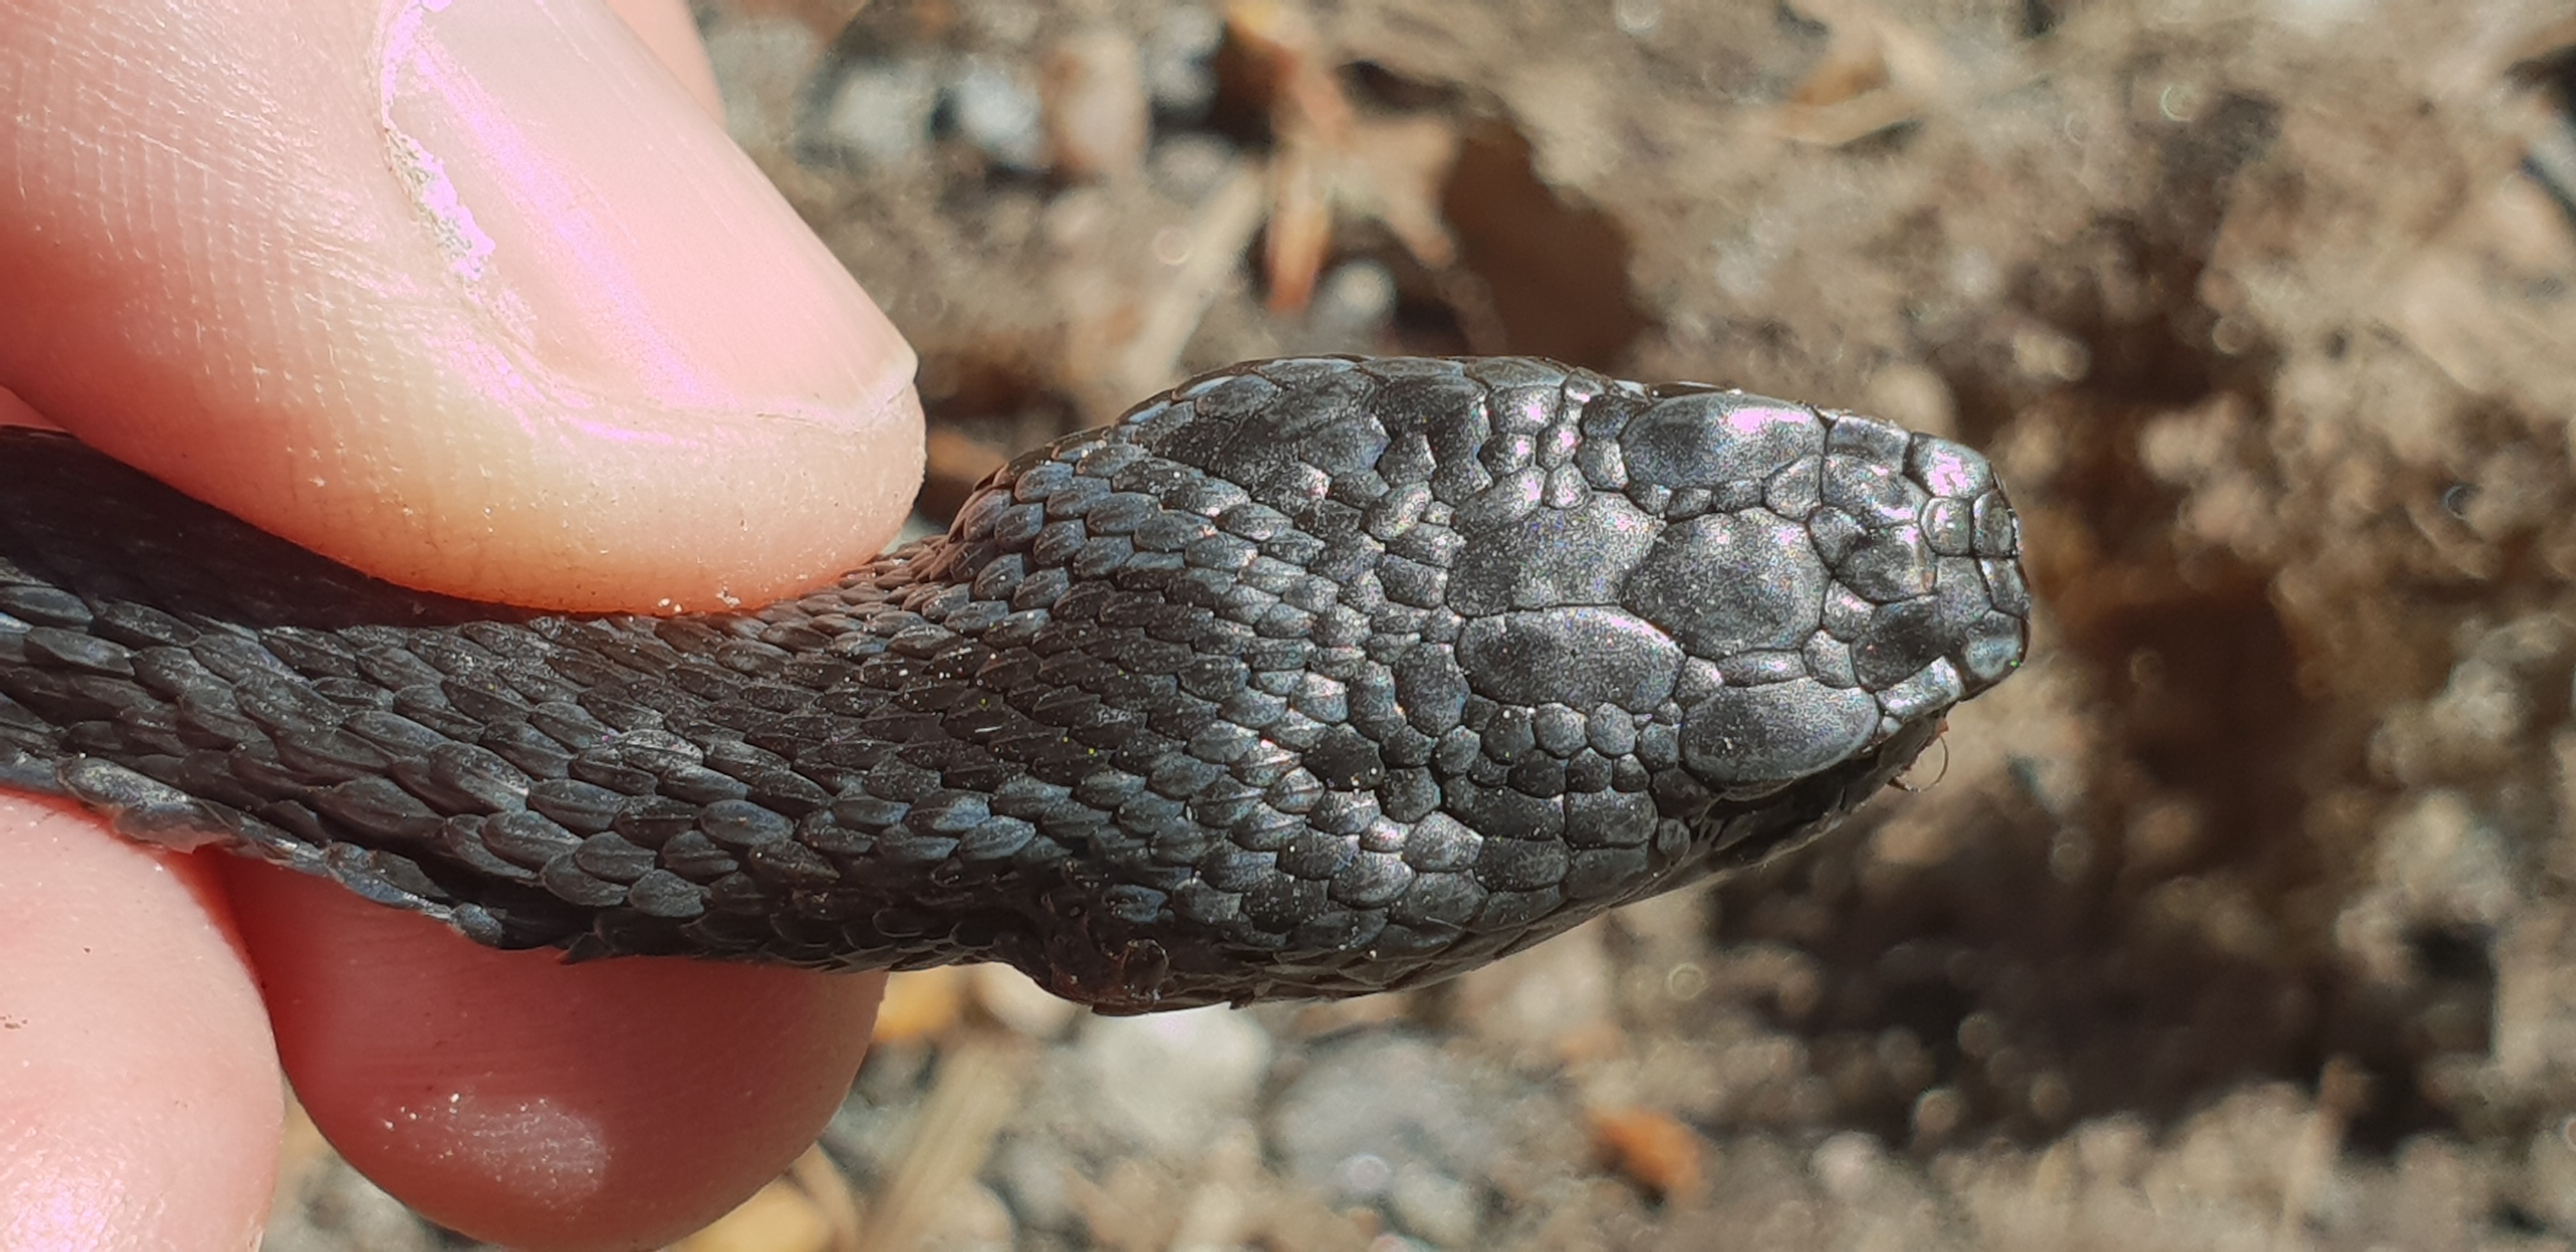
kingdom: Animalia
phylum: Chordata
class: Squamata
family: Viperidae
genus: Vipera
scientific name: Vipera berus
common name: Adder
